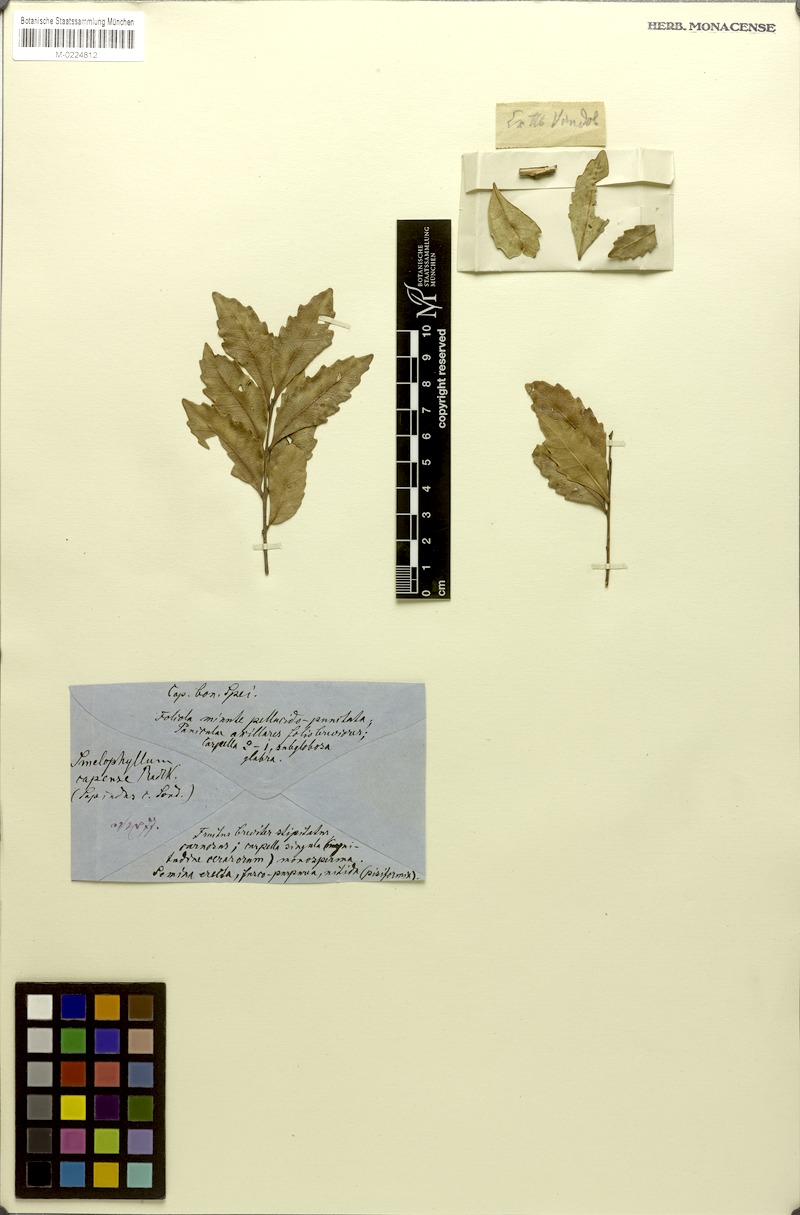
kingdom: Plantae
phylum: Tracheophyta
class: Magnoliopsida
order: Sapindales
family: Sapindaceae
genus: Smelophyllum
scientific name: Smelophyllum capense
